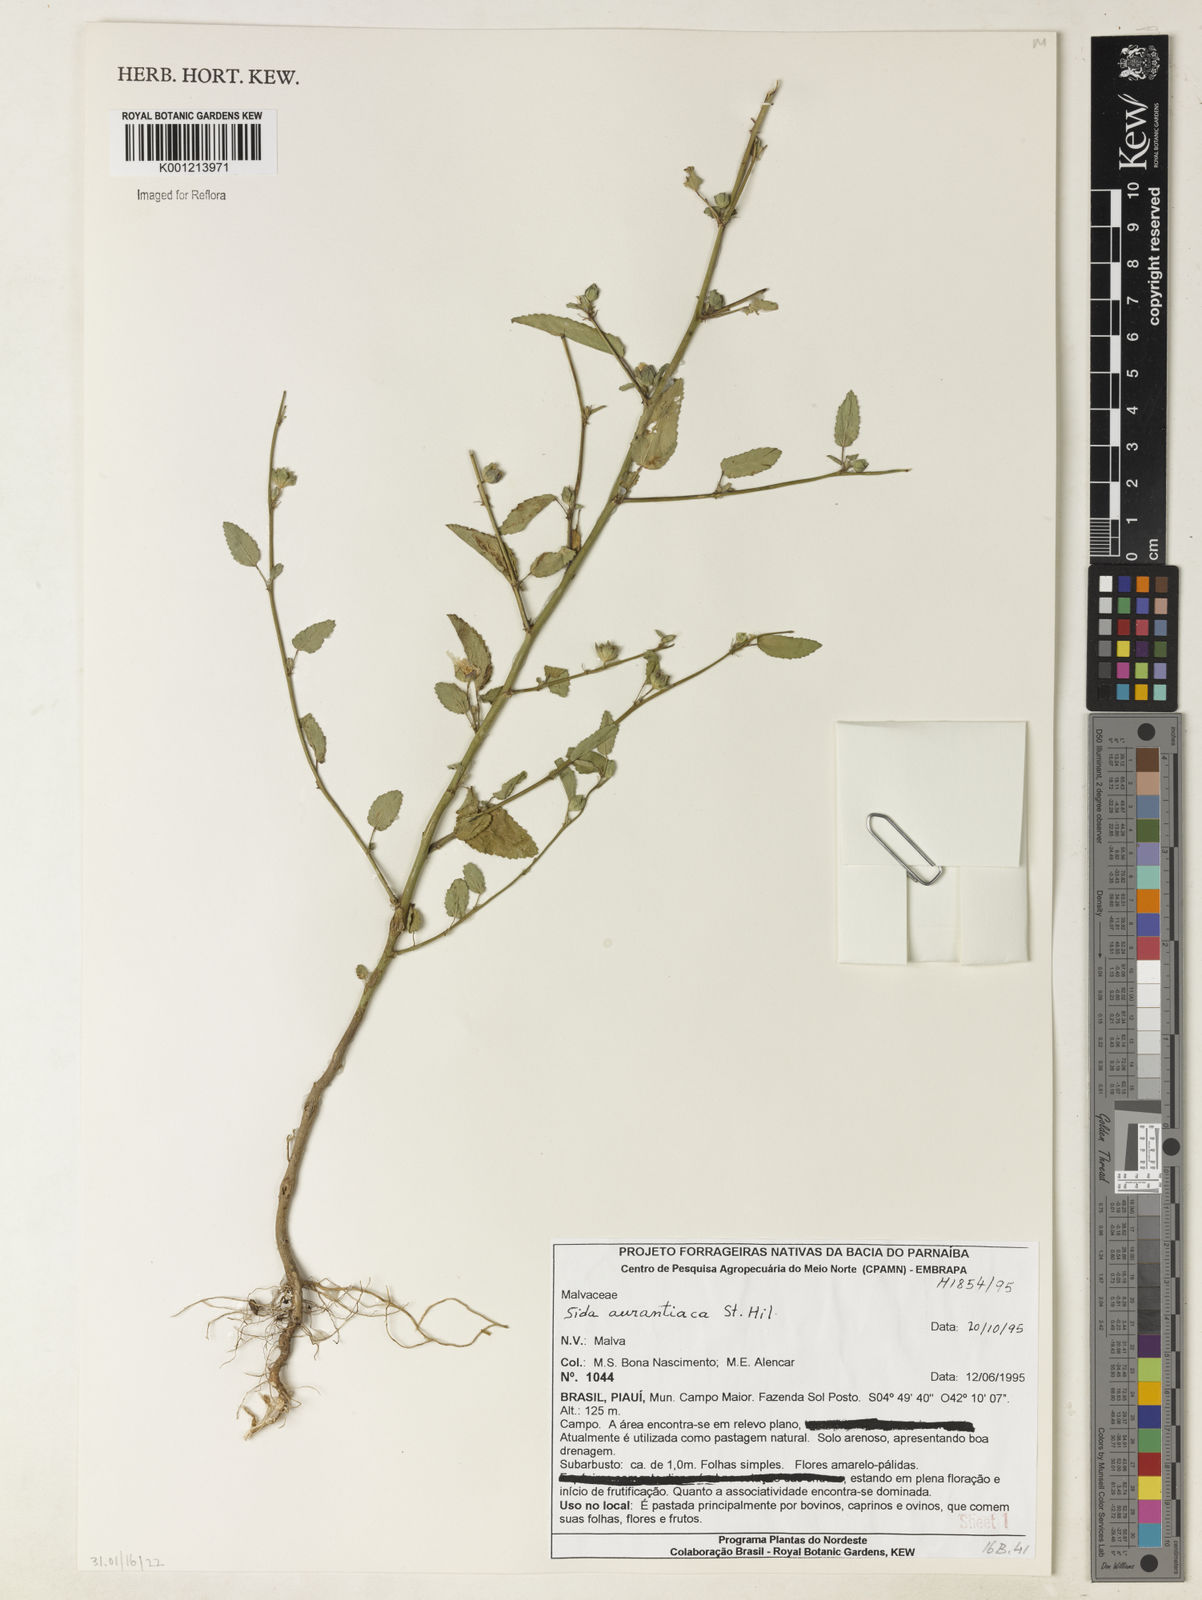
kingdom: Plantae
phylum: Tracheophyta
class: Magnoliopsida
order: Malvales
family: Malvaceae
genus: Sida
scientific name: Sida aurantiaca
